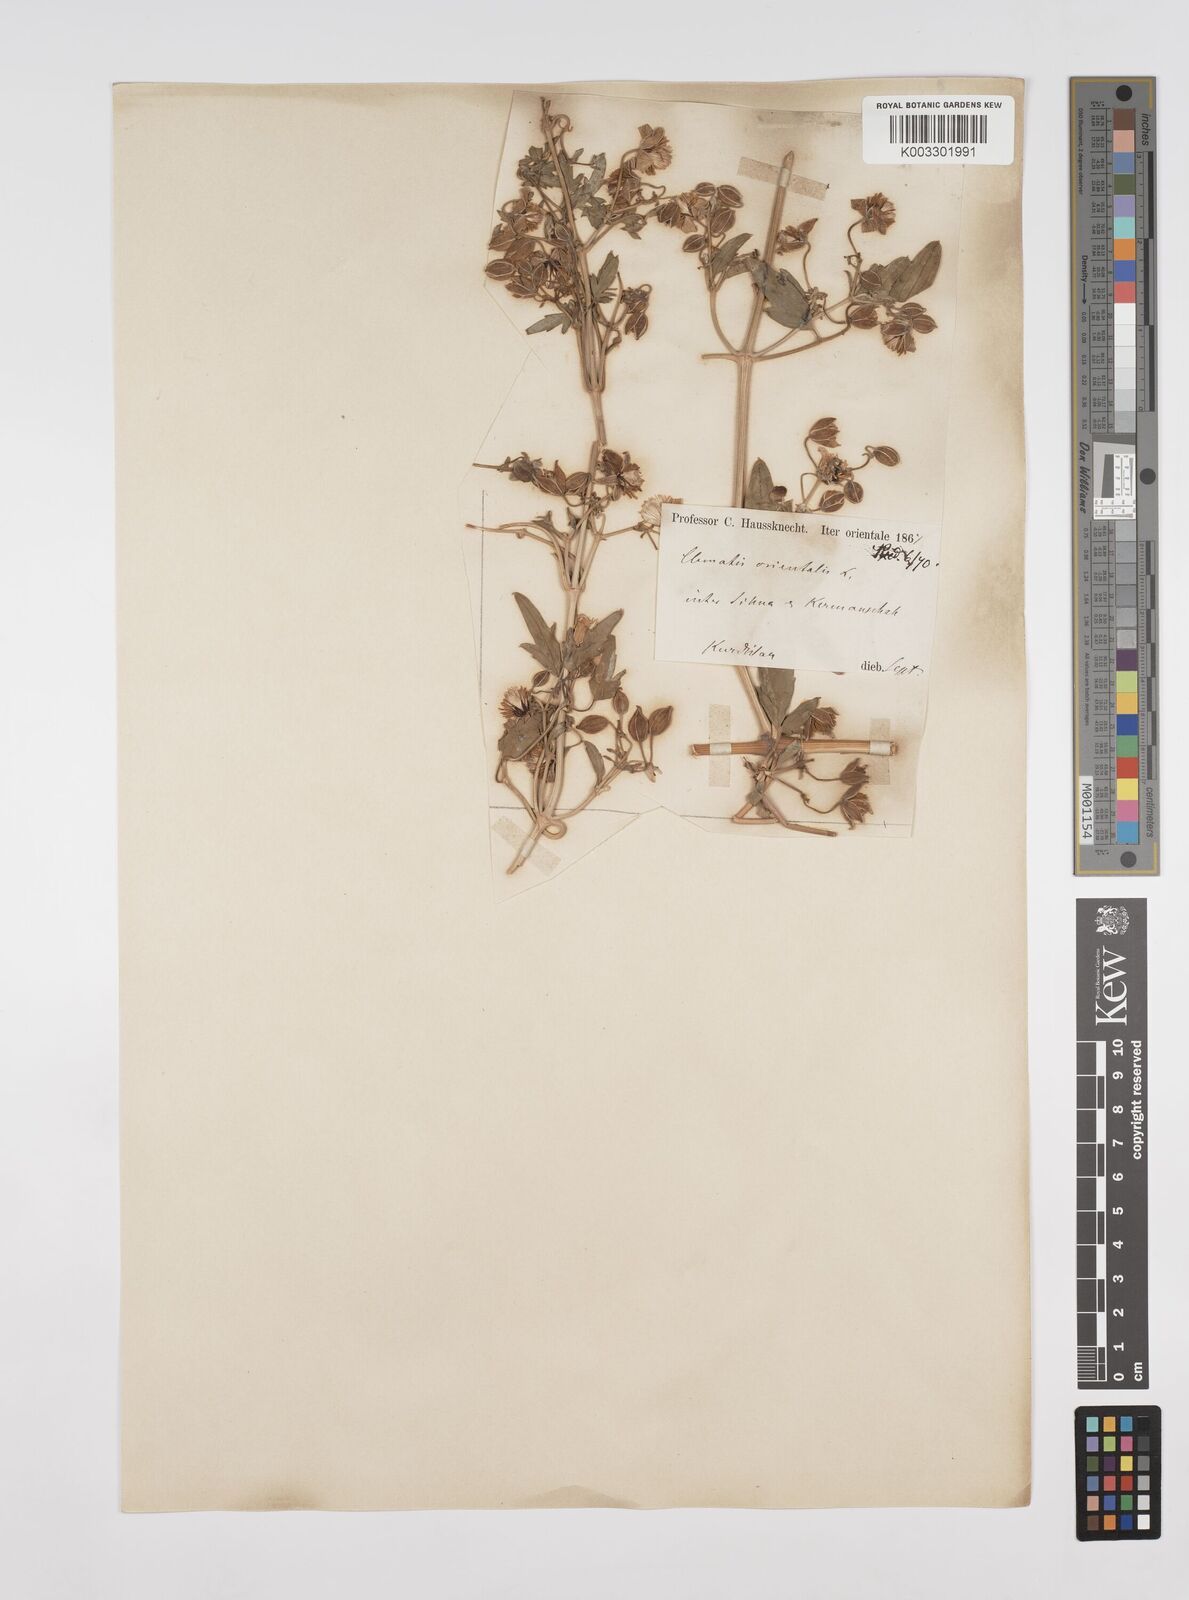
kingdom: Plantae
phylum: Tracheophyta
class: Magnoliopsida
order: Ranunculales
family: Ranunculaceae
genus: Clematis
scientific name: Clematis orientalis
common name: Oriental virgin's-bower
